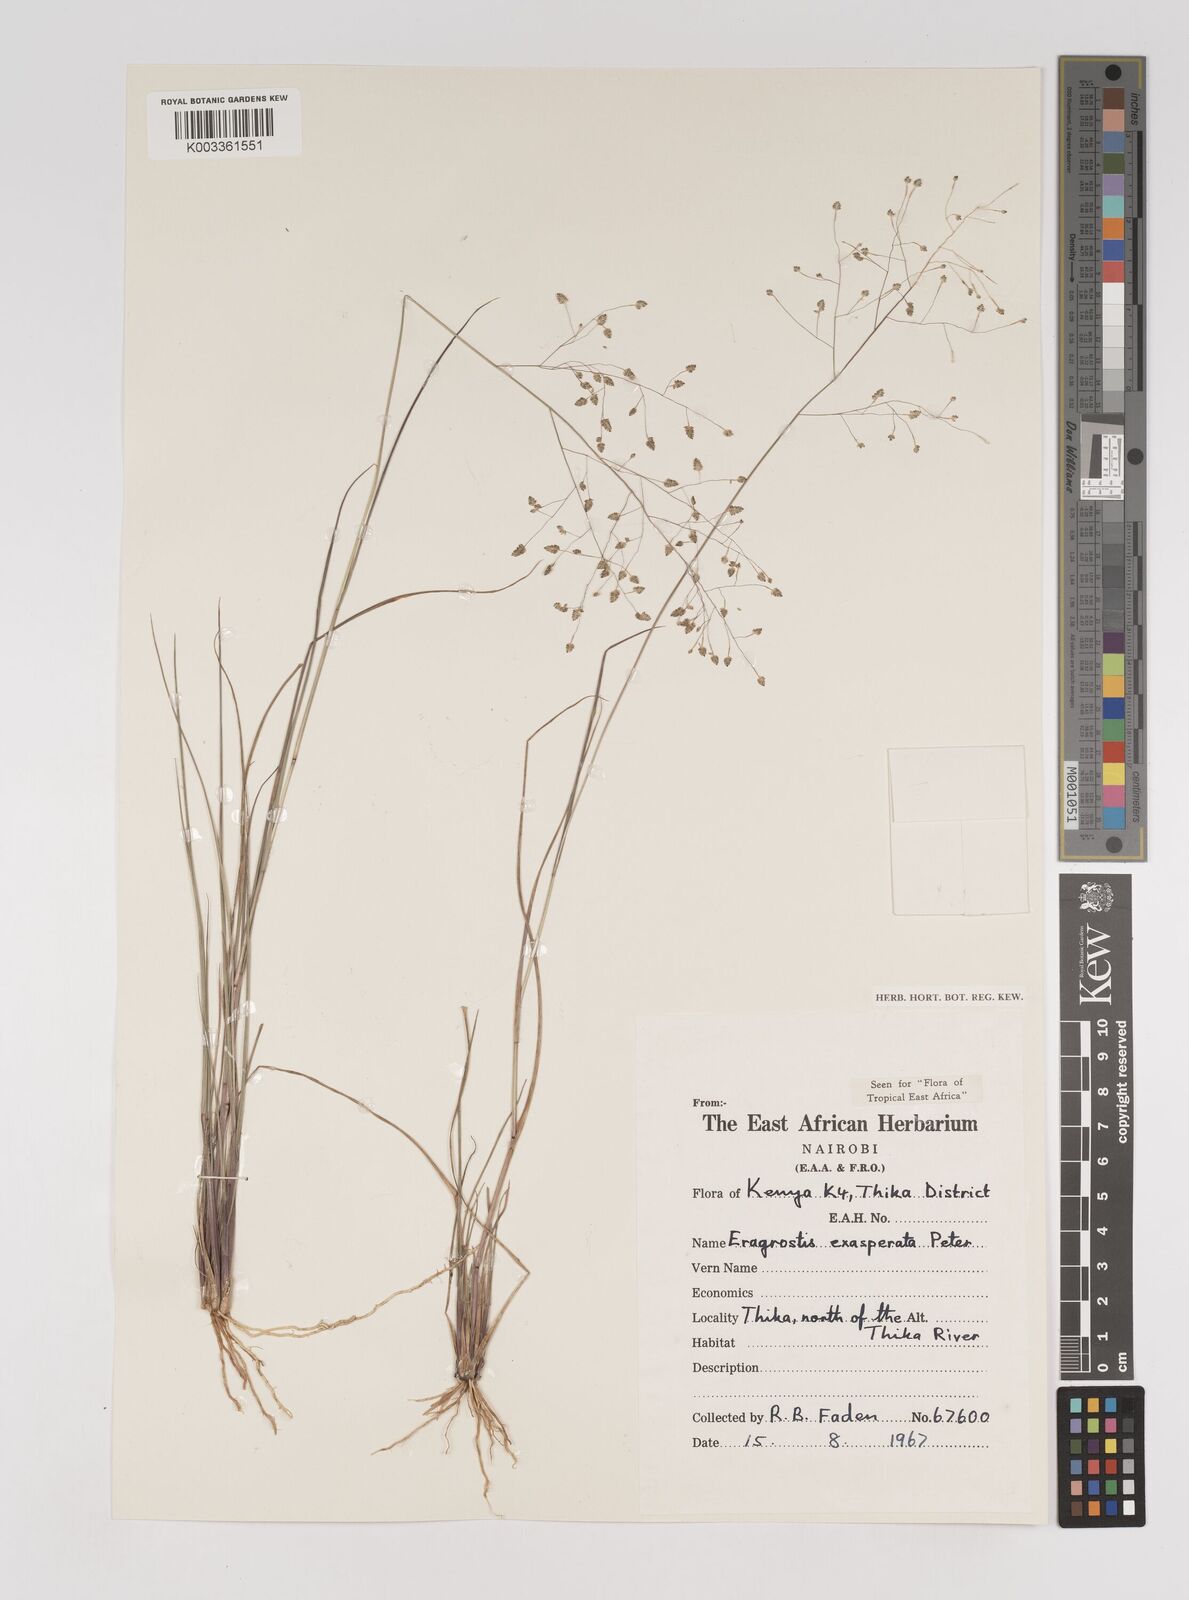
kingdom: Plantae
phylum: Tracheophyta
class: Liliopsida
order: Poales
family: Poaceae
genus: Eragrostis
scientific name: Eragrostis exasperata
